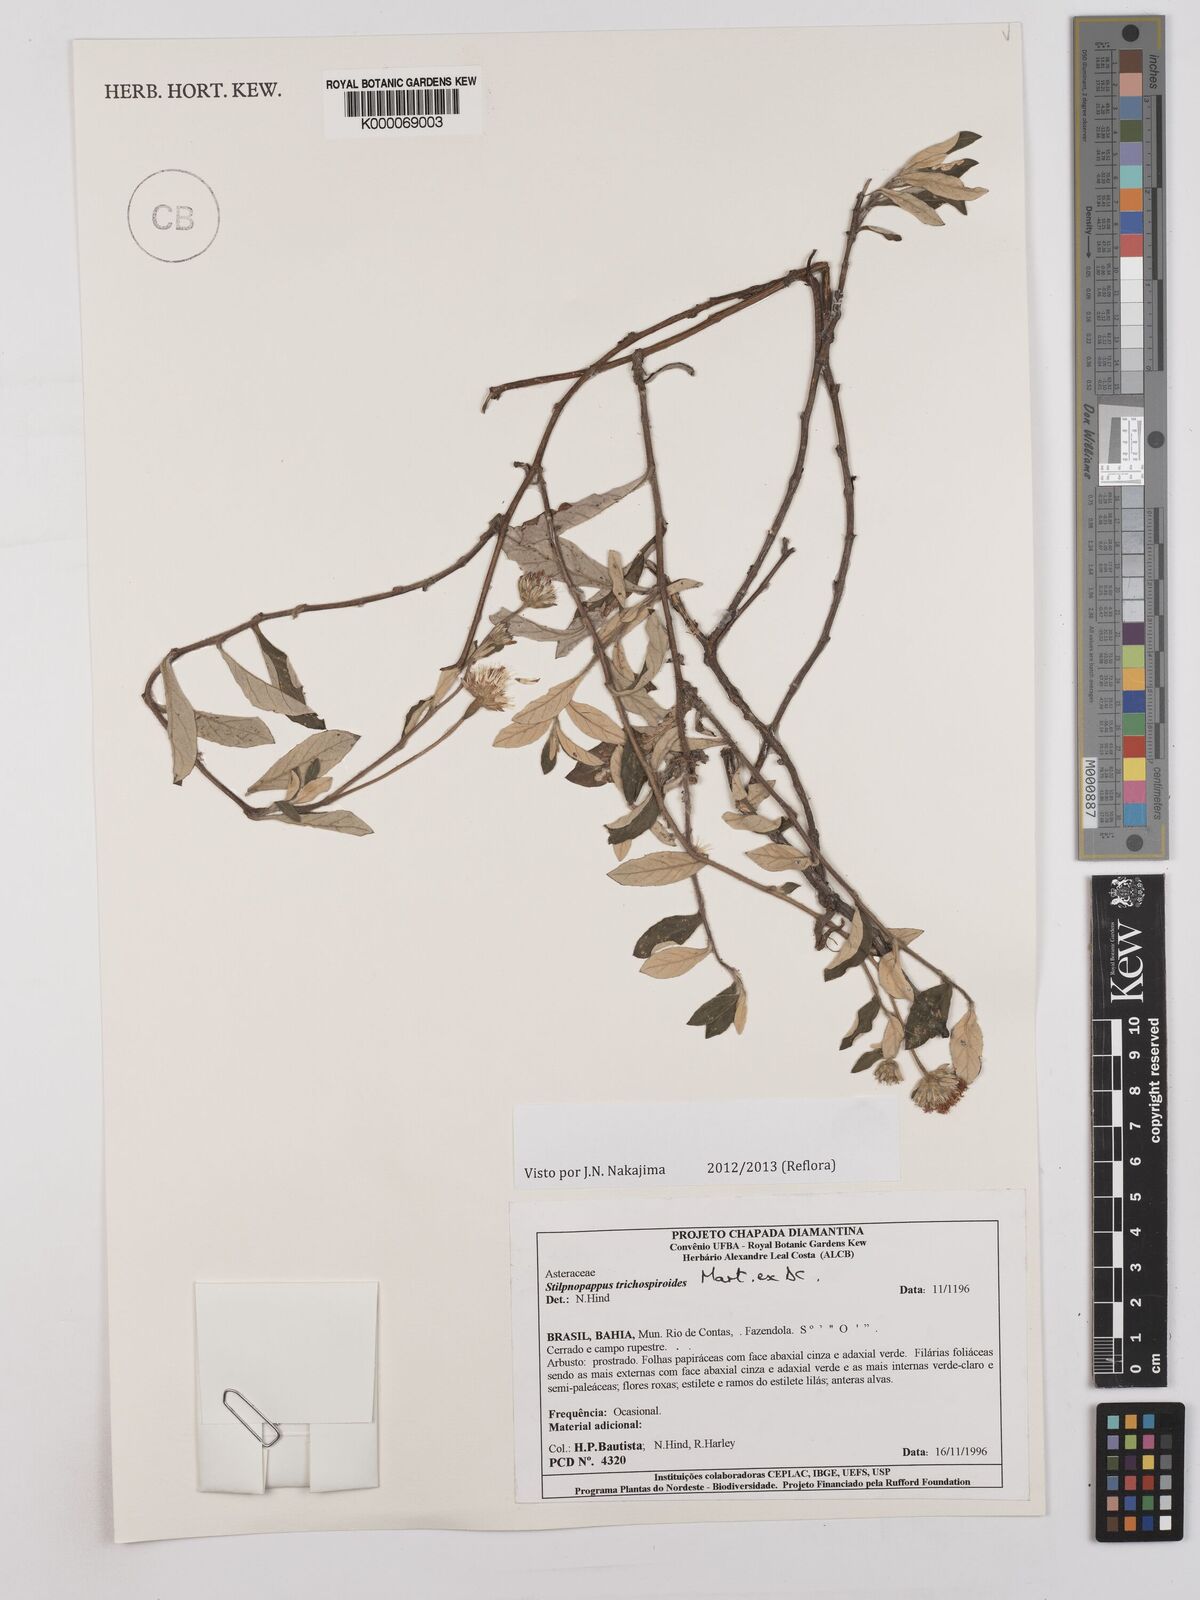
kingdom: Plantae
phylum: Tracheophyta
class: Magnoliopsida
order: Asterales
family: Asteraceae
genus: Stilpnopappus
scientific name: Stilpnopappus
